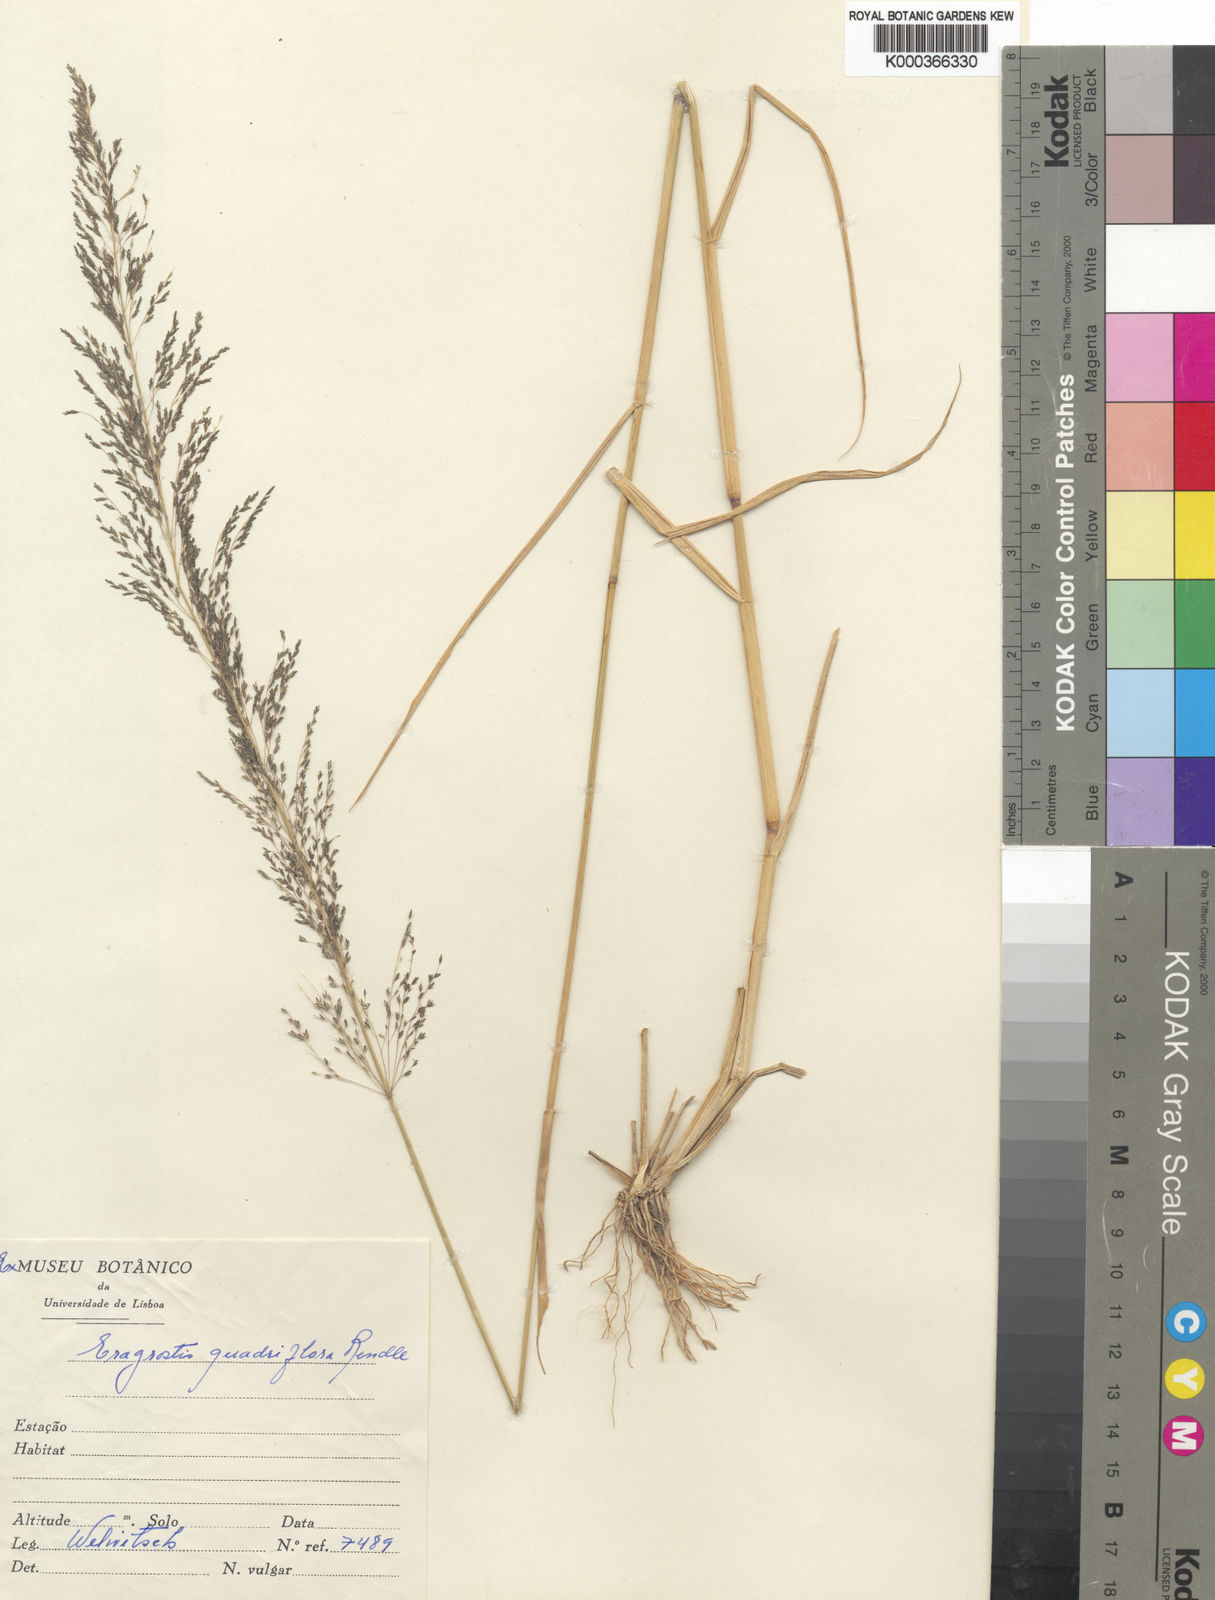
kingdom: Plantae
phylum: Tracheophyta
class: Liliopsida
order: Poales
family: Poaceae
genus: Eragrostis
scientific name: Eragrostis cylindriflora
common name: Cylinderflower lovegrass
